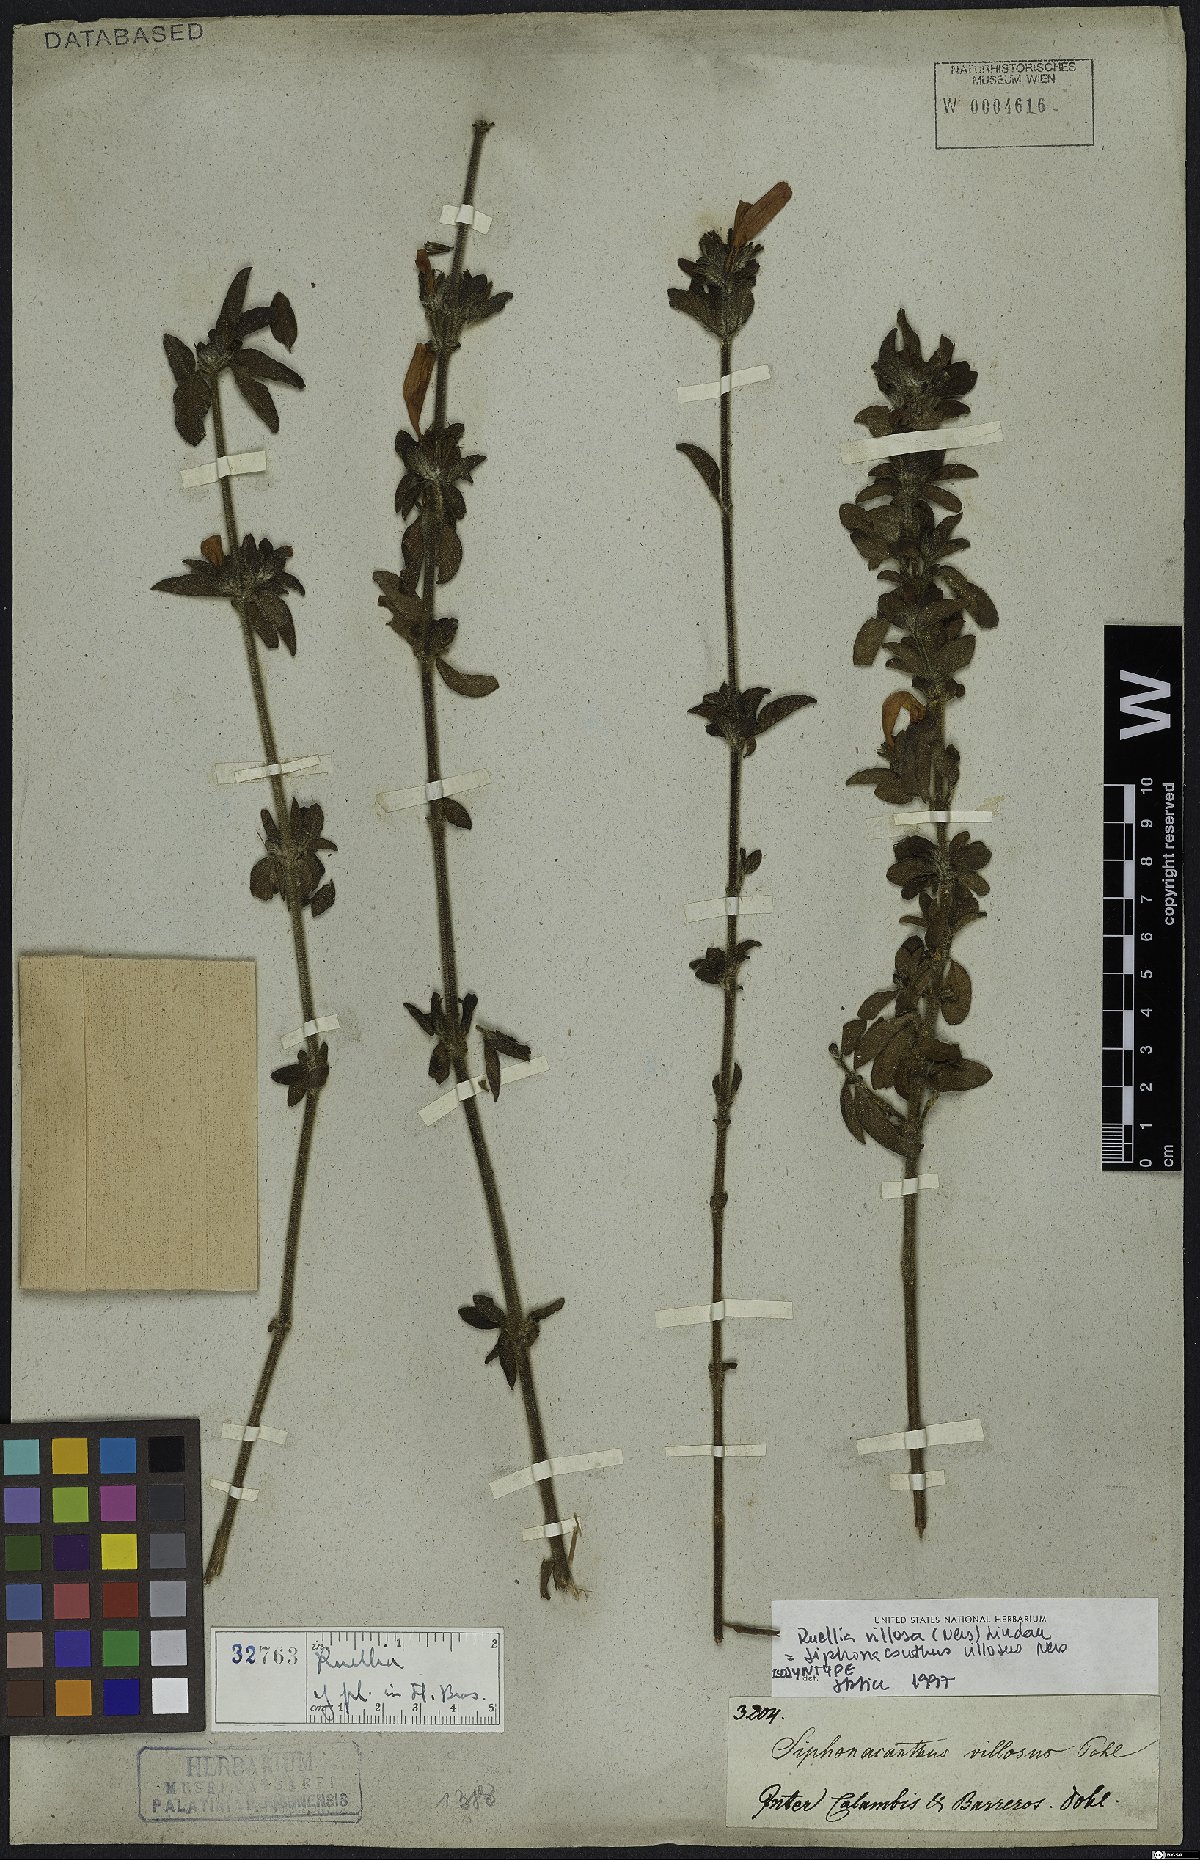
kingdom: Plantae
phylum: Tracheophyta
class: Magnoliopsida
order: Lamiales
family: Acanthaceae
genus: Ruellia
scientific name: Ruellia villosa
